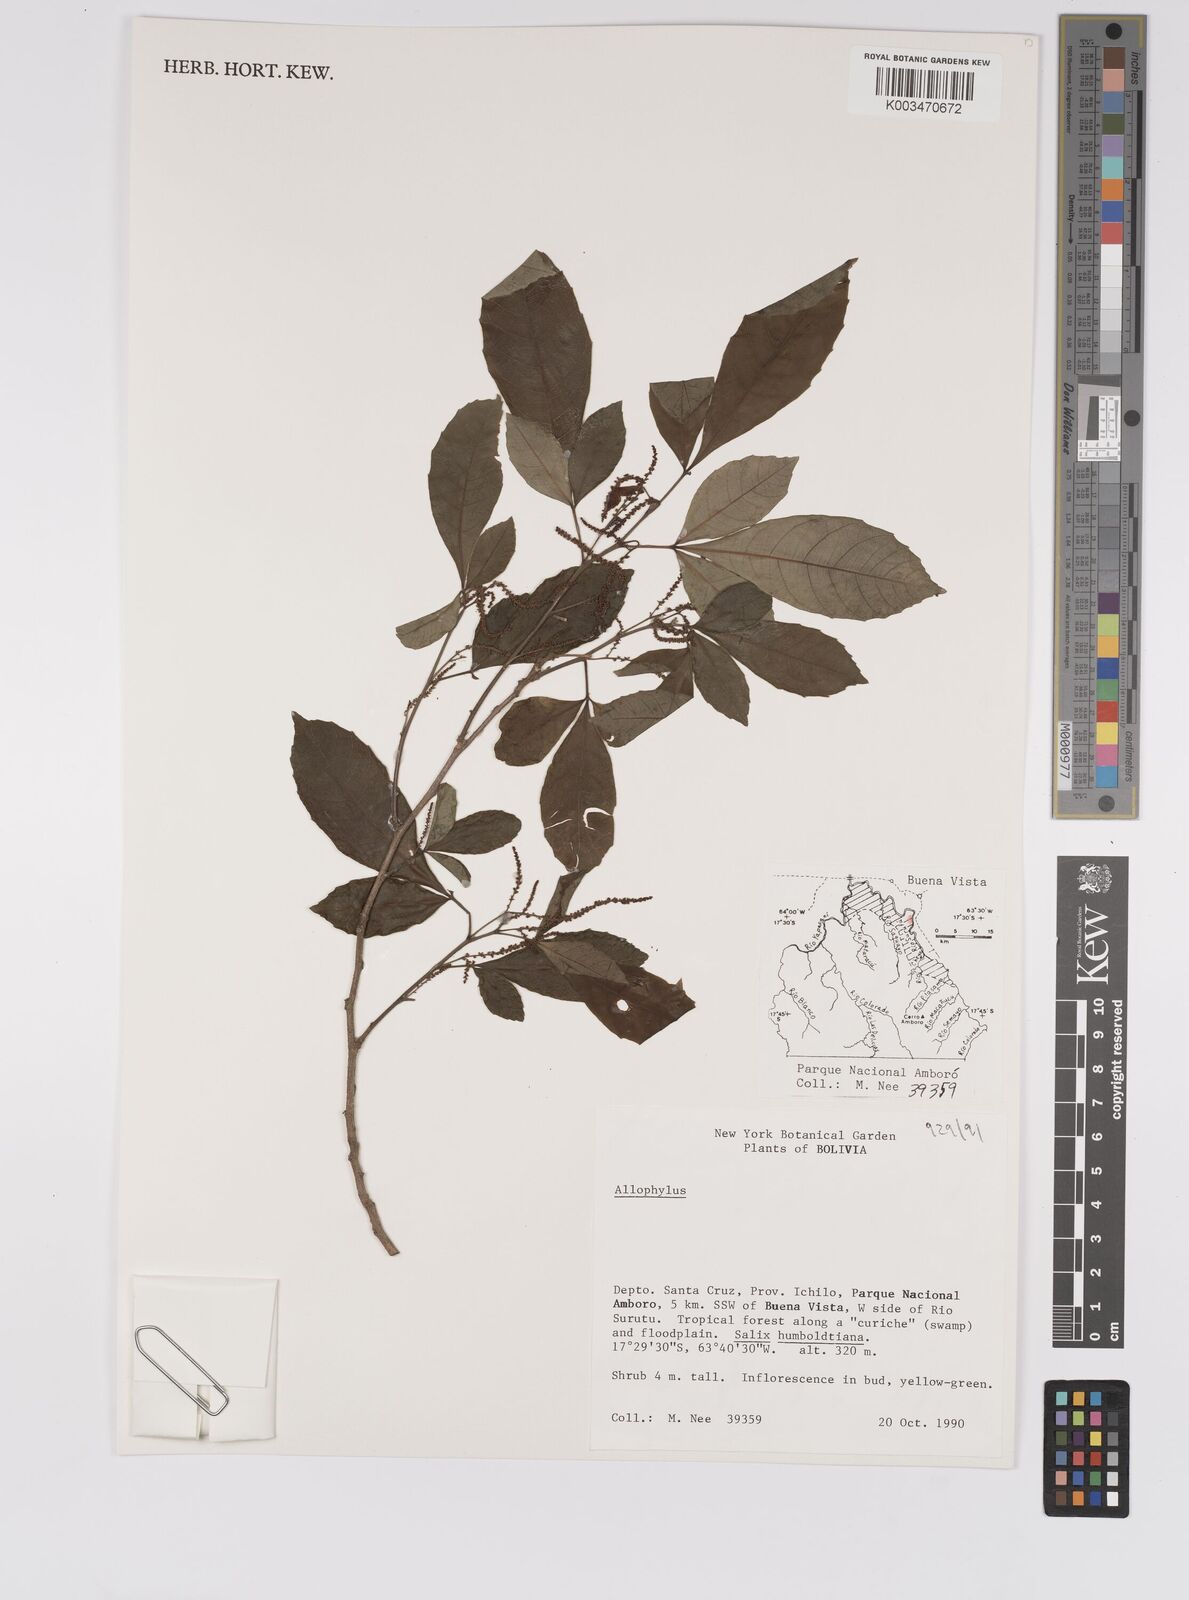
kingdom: Plantae
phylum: Tracheophyta
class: Magnoliopsida
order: Sapindales
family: Sapindaceae
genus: Allophylus
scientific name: Allophylus
